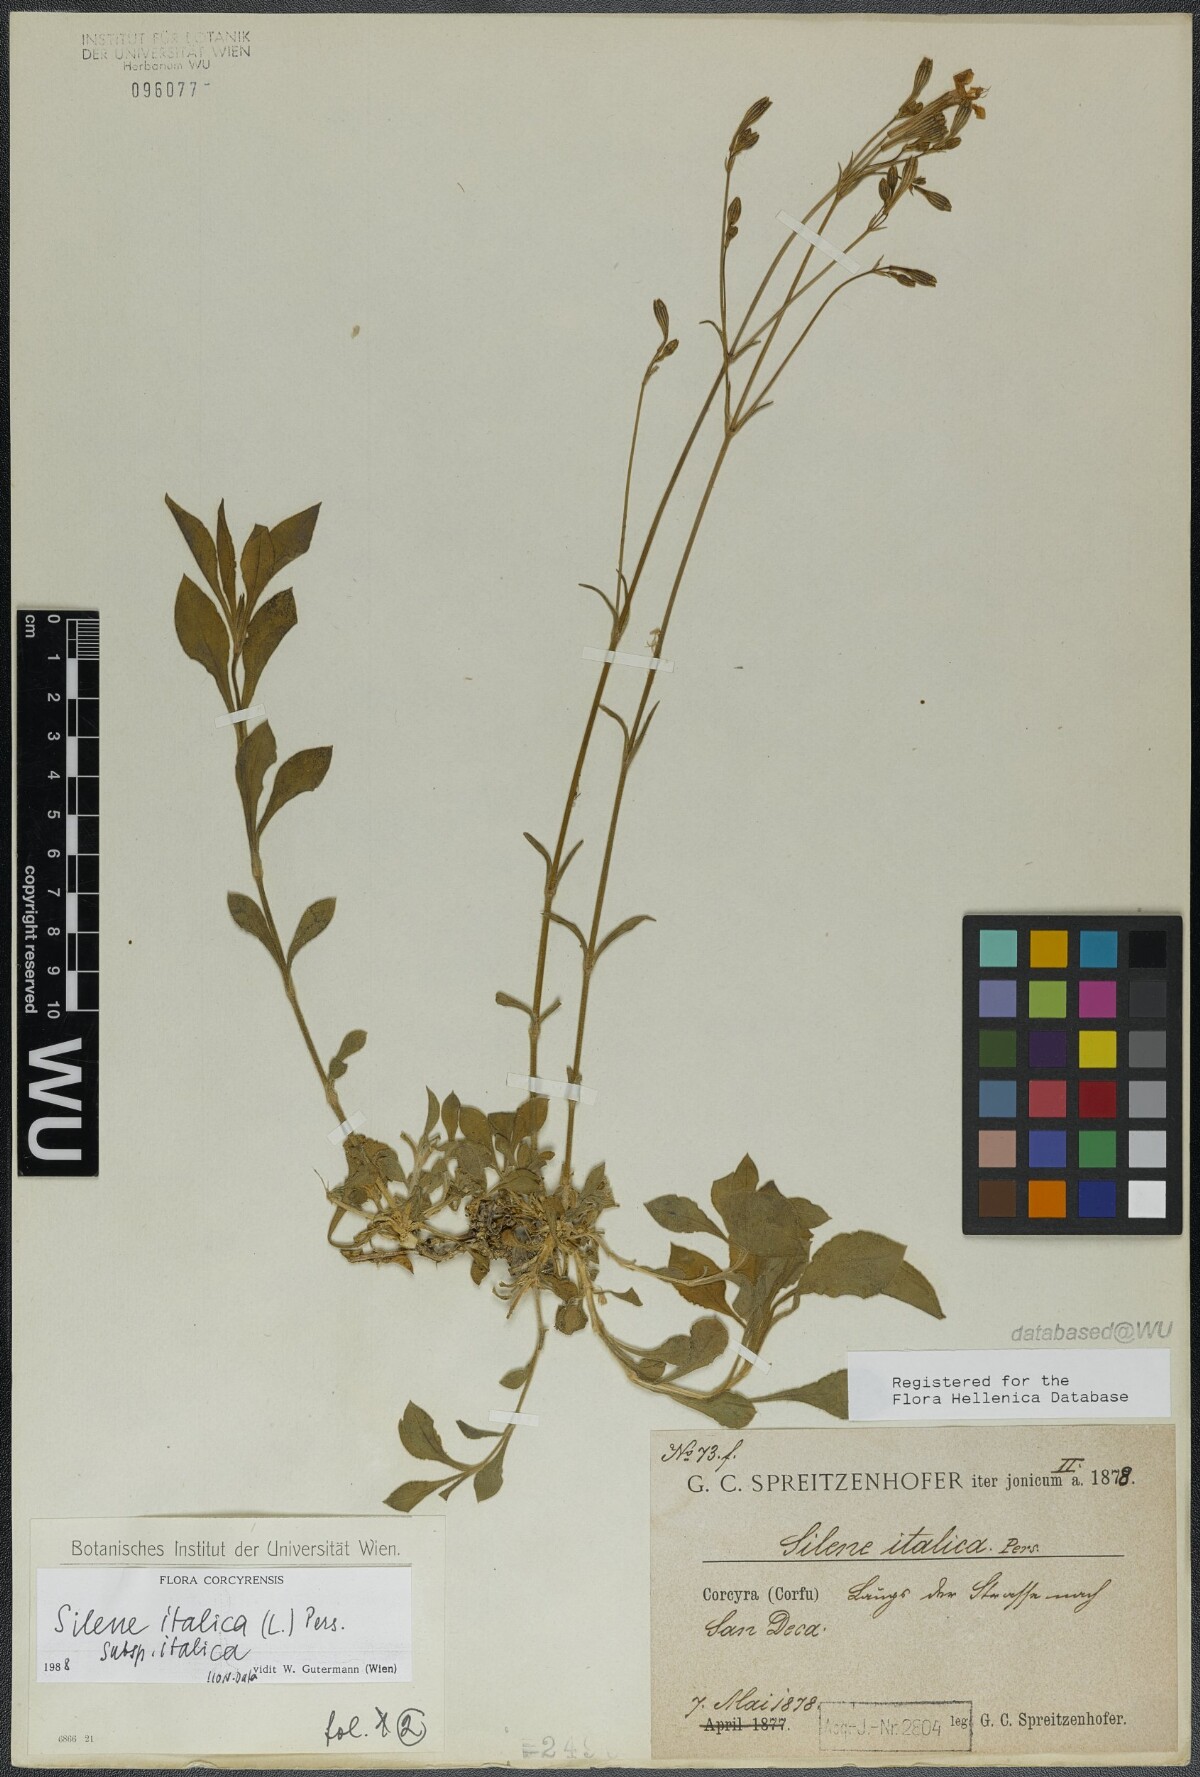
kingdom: Plantae
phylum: Tracheophyta
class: Magnoliopsida
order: Caryophyllales
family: Caryophyllaceae
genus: Silene
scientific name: Silene italica
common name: Italian catchfly
